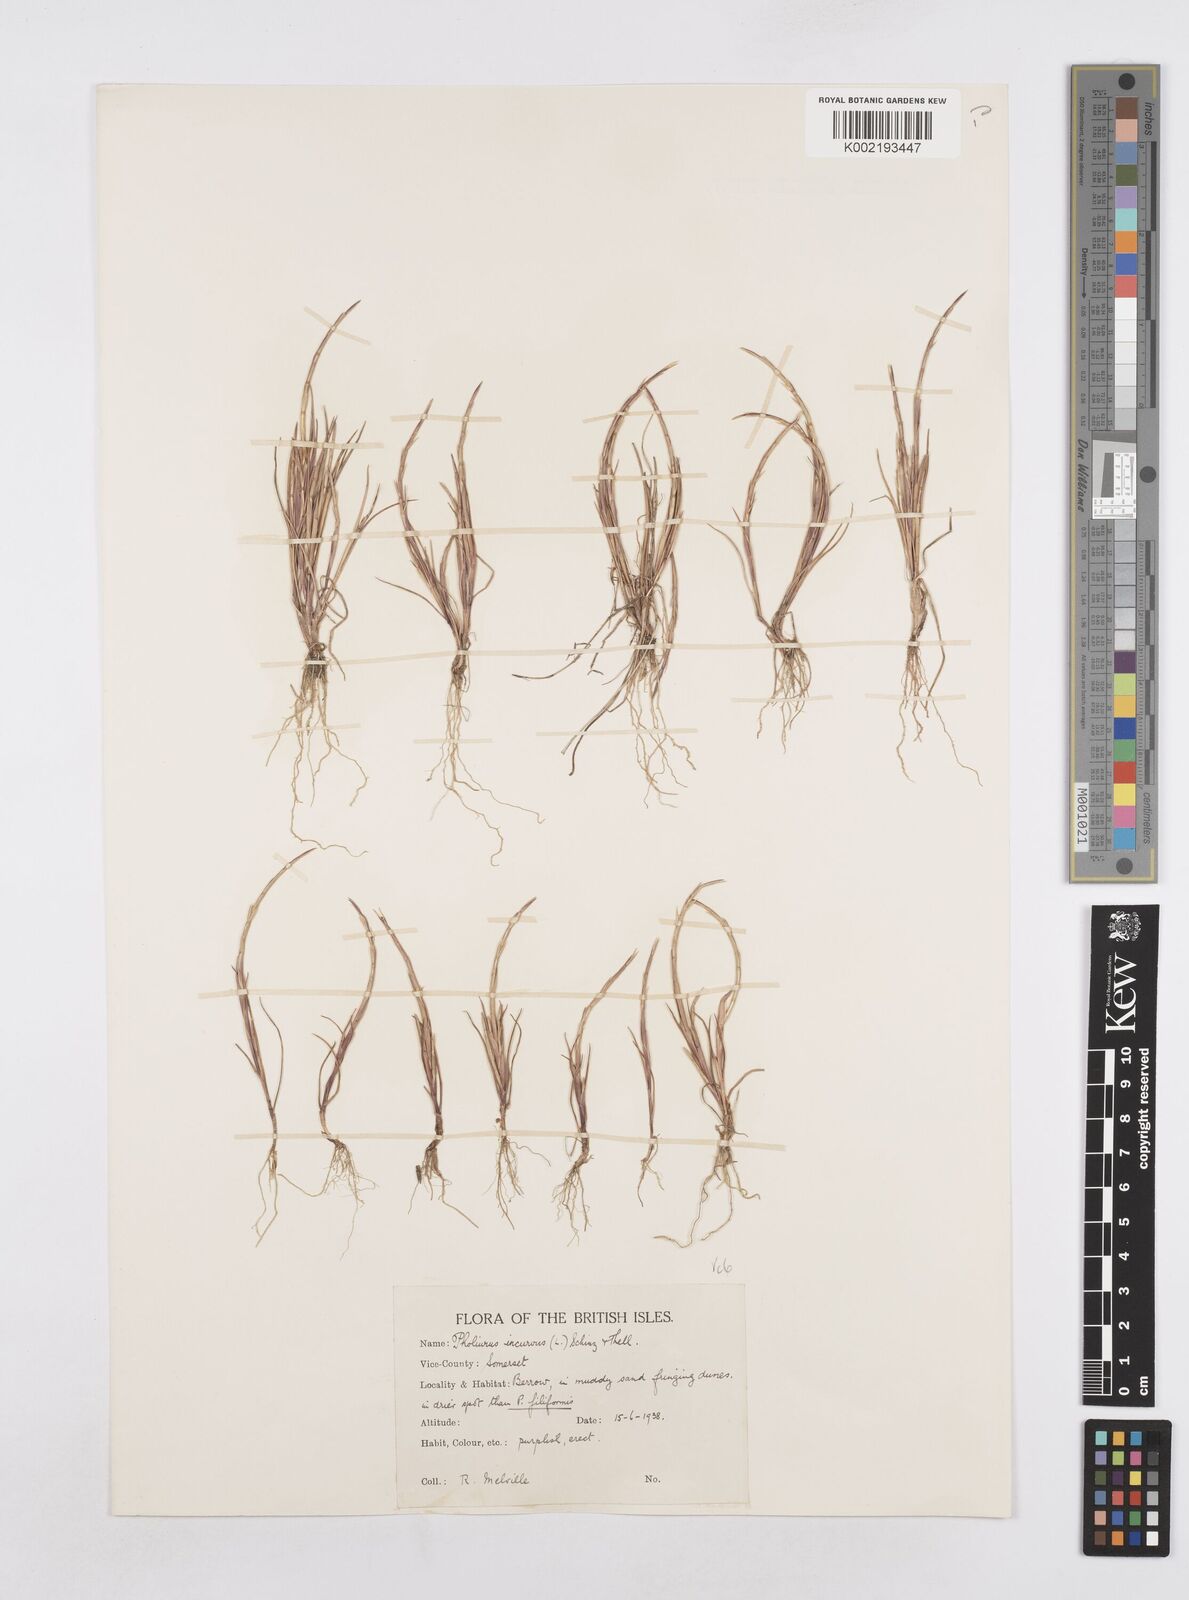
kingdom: Plantae
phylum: Tracheophyta
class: Liliopsida
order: Poales
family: Poaceae
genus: Parapholis
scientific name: Parapholis incurva
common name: Curved sicklegrass
